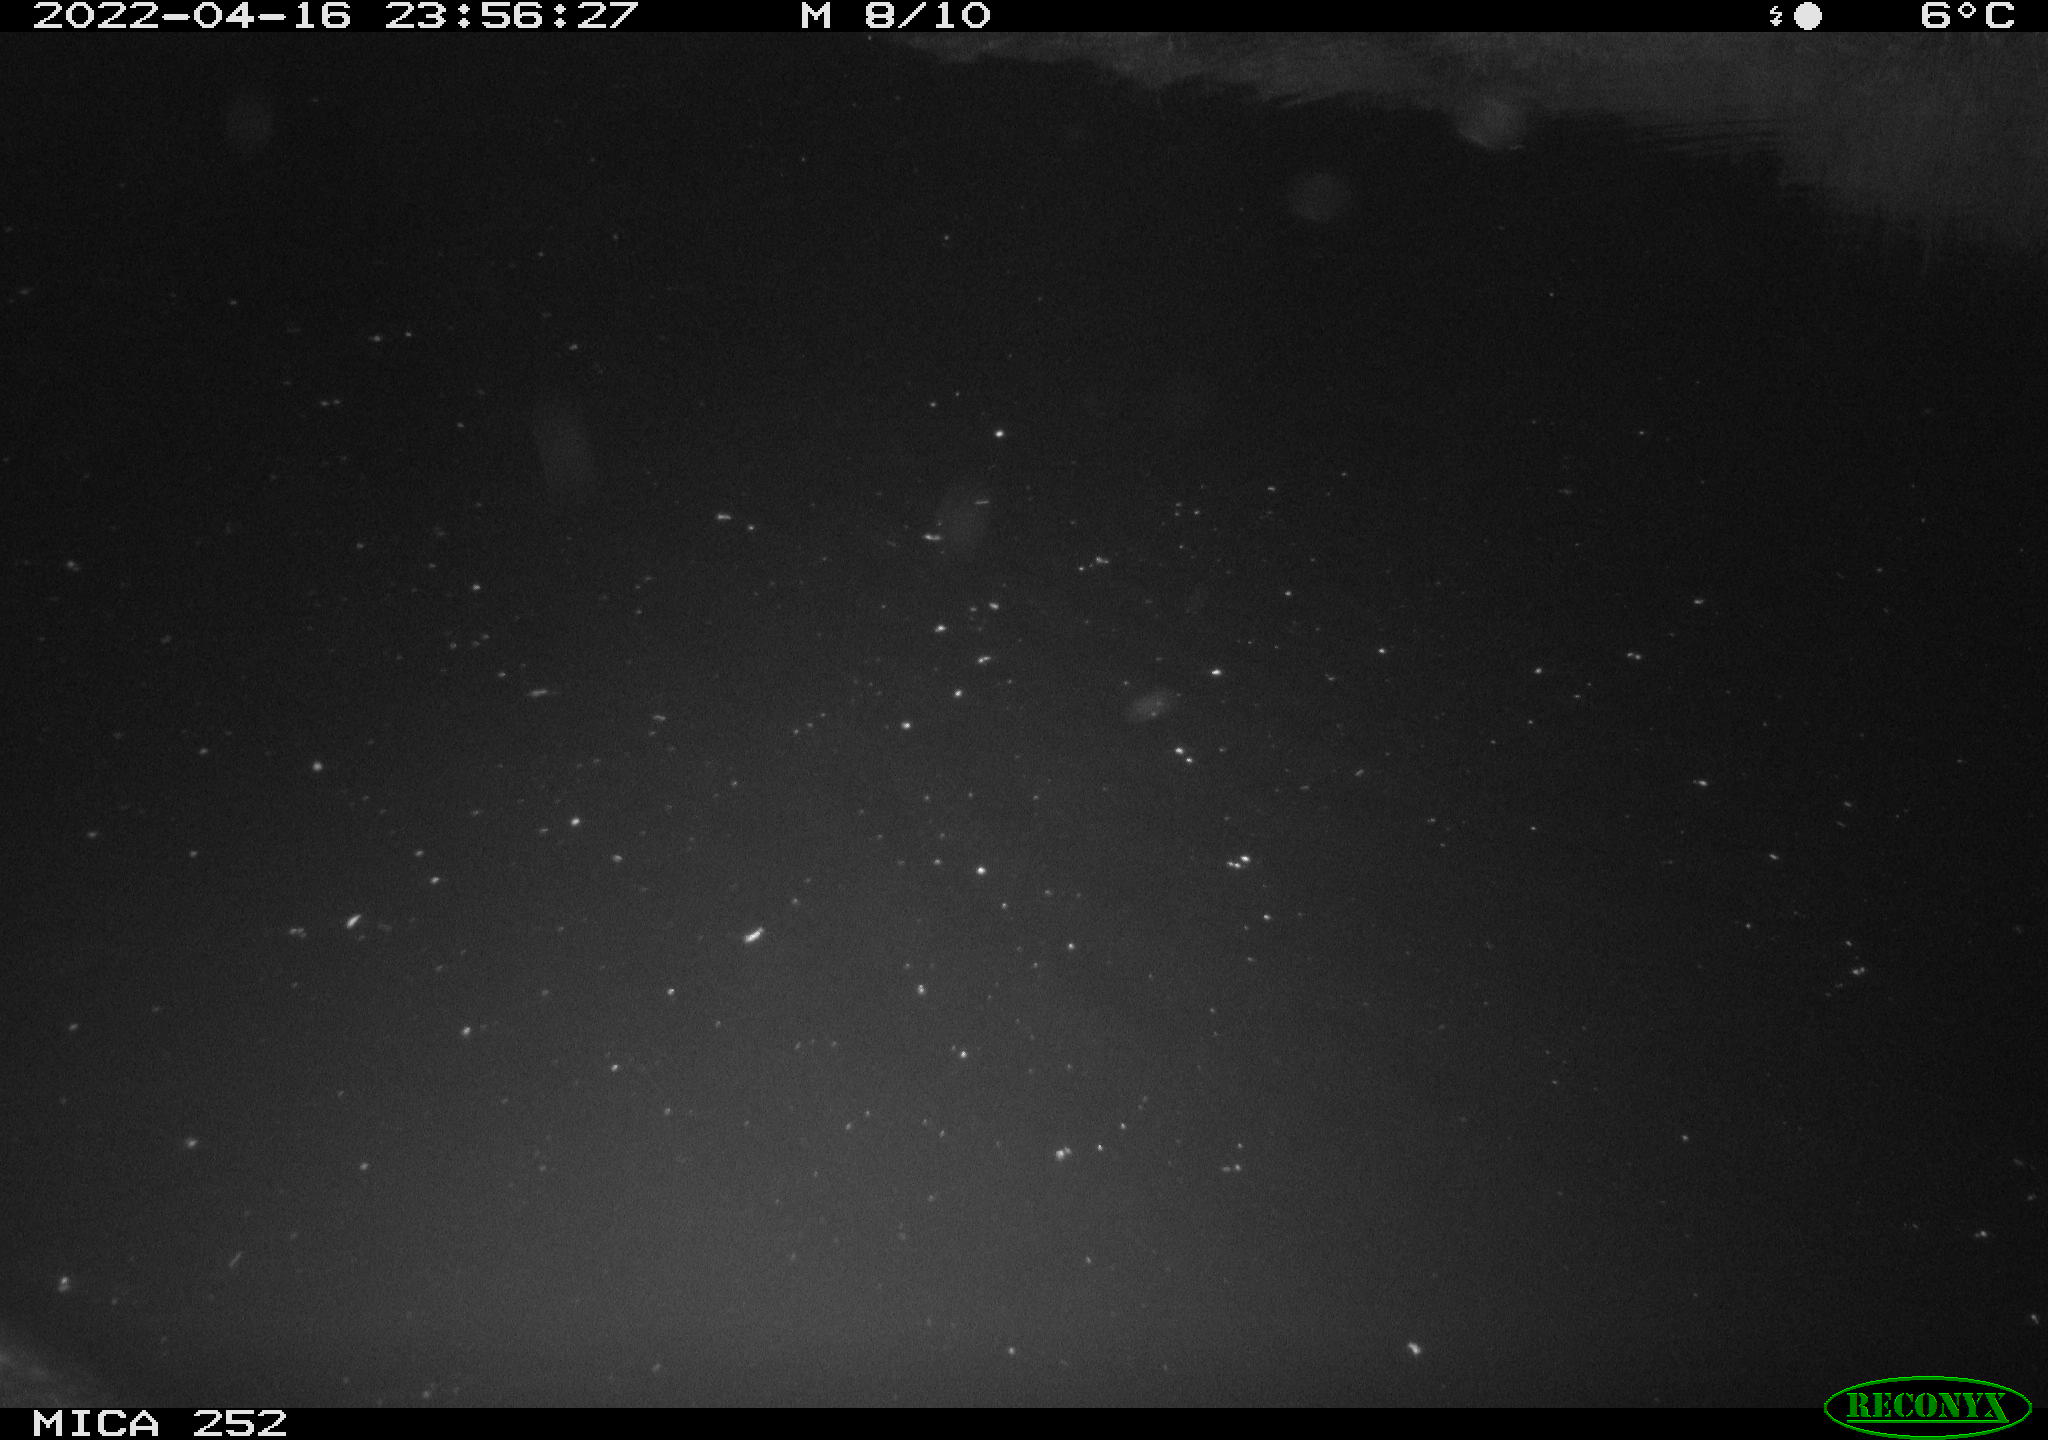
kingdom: Animalia
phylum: Chordata
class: Mammalia
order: Rodentia
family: Castoridae
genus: Castor
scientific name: Castor fiber
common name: Eurasian beaver
